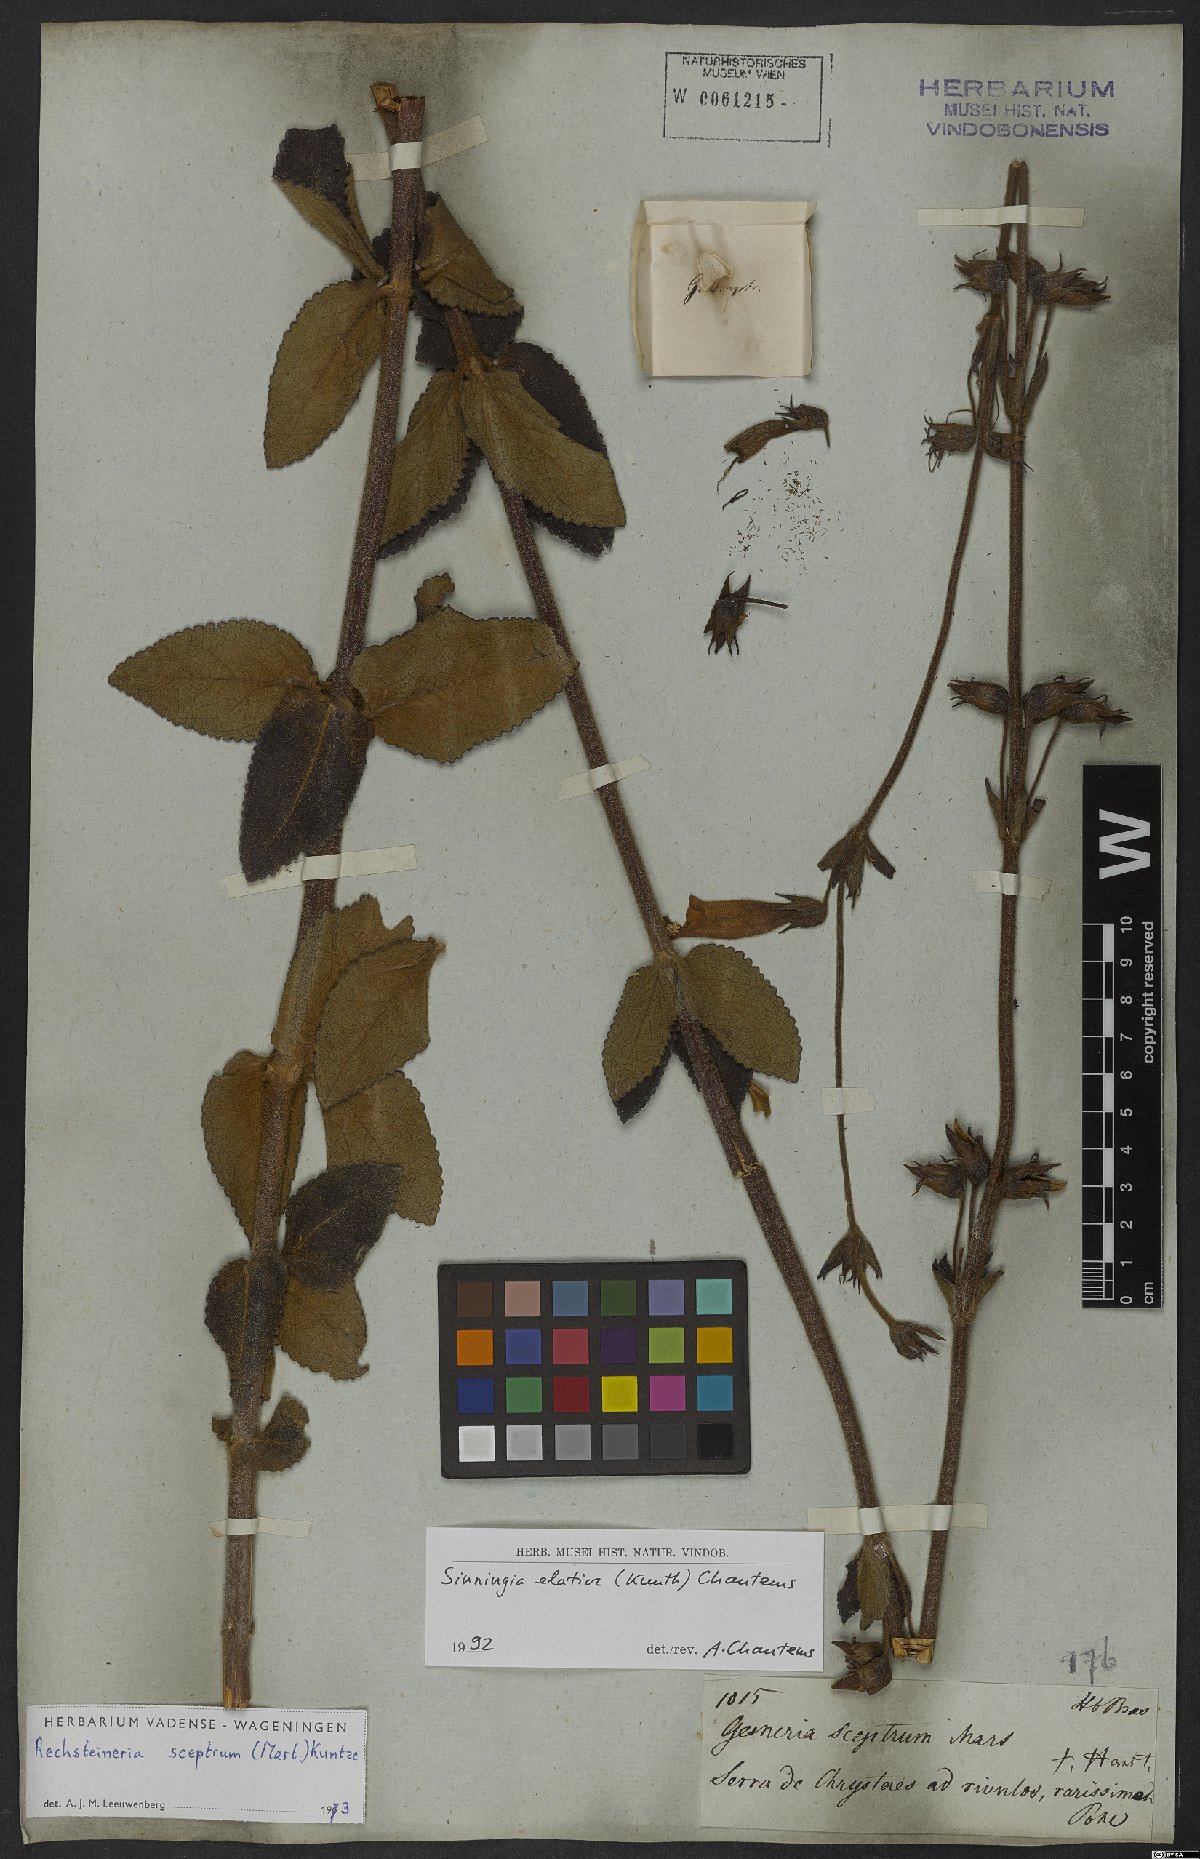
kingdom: Plantae
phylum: Tracheophyta
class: Magnoliopsida
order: Lamiales
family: Gesneriaceae
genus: Sinningia
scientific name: Sinningia elatior
